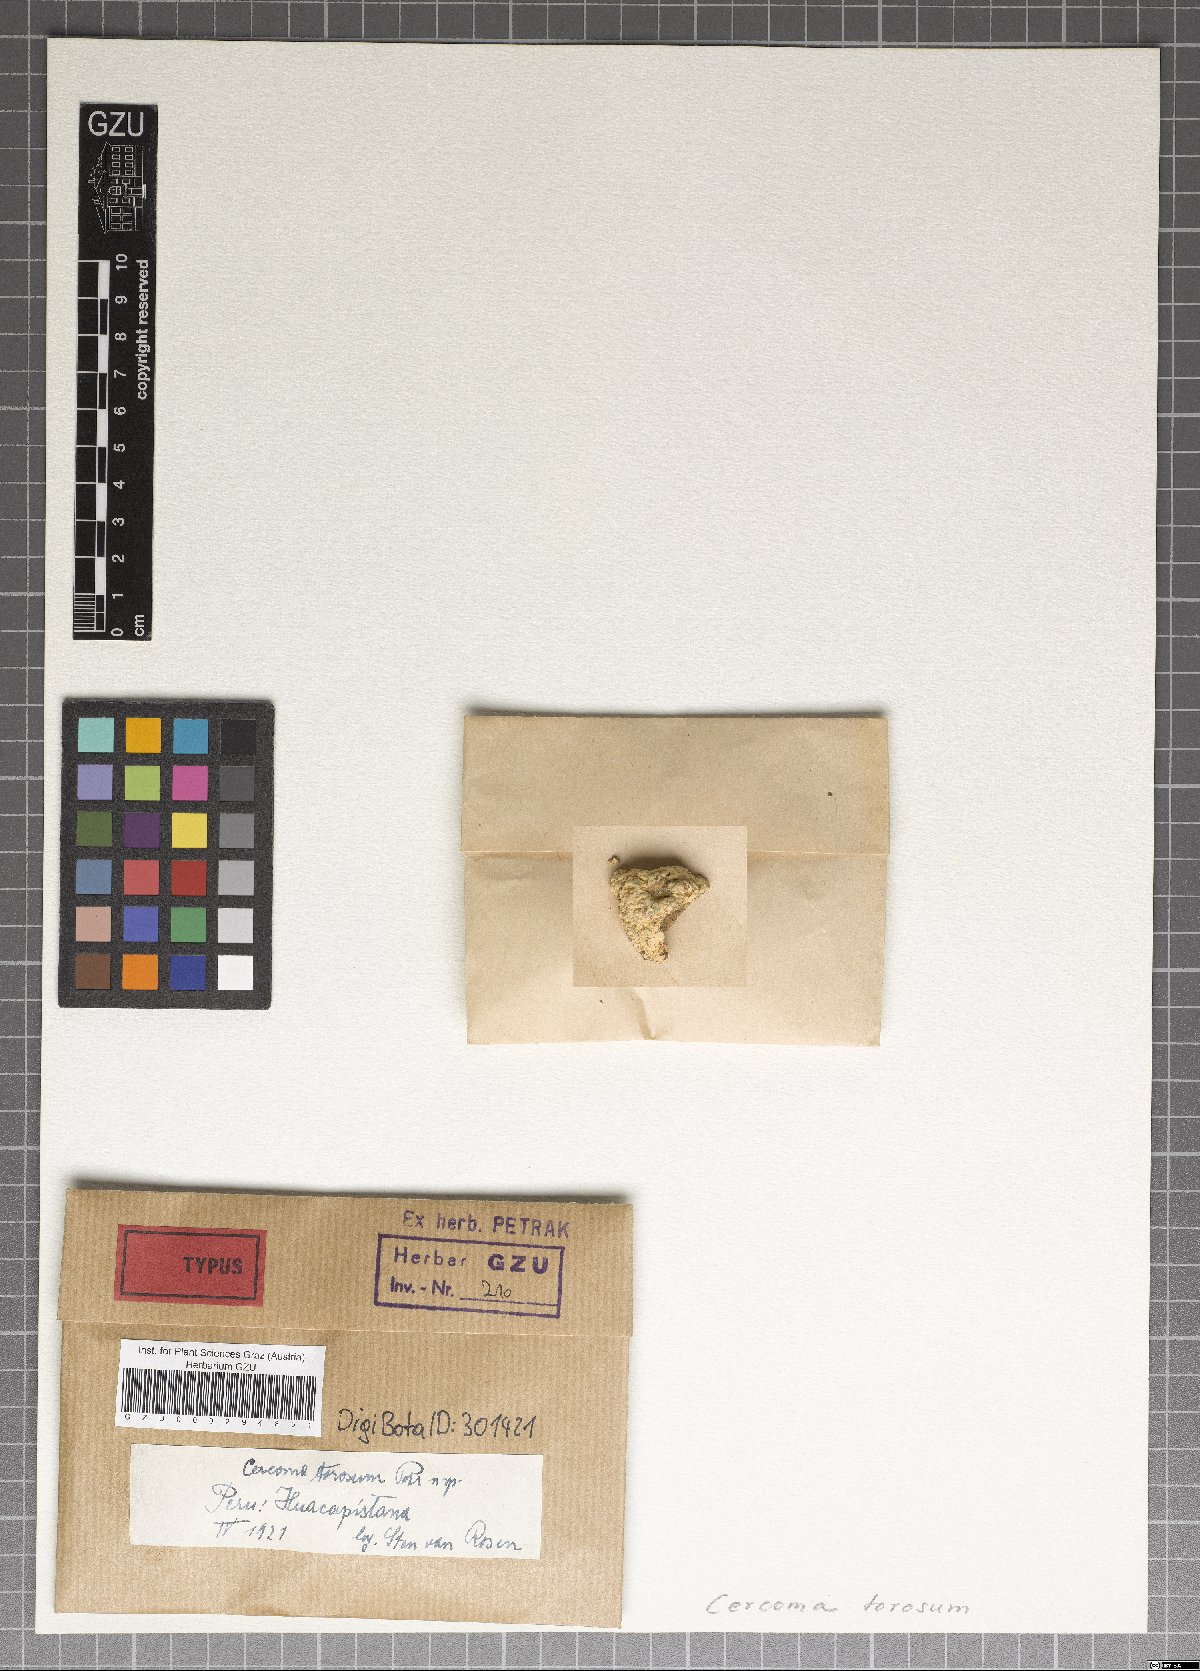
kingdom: Fungi
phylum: Basidiomycota
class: Pucciniomycetes
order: Pucciniales
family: Pucciniaceae
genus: Caeoma
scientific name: Caeoma torosum
